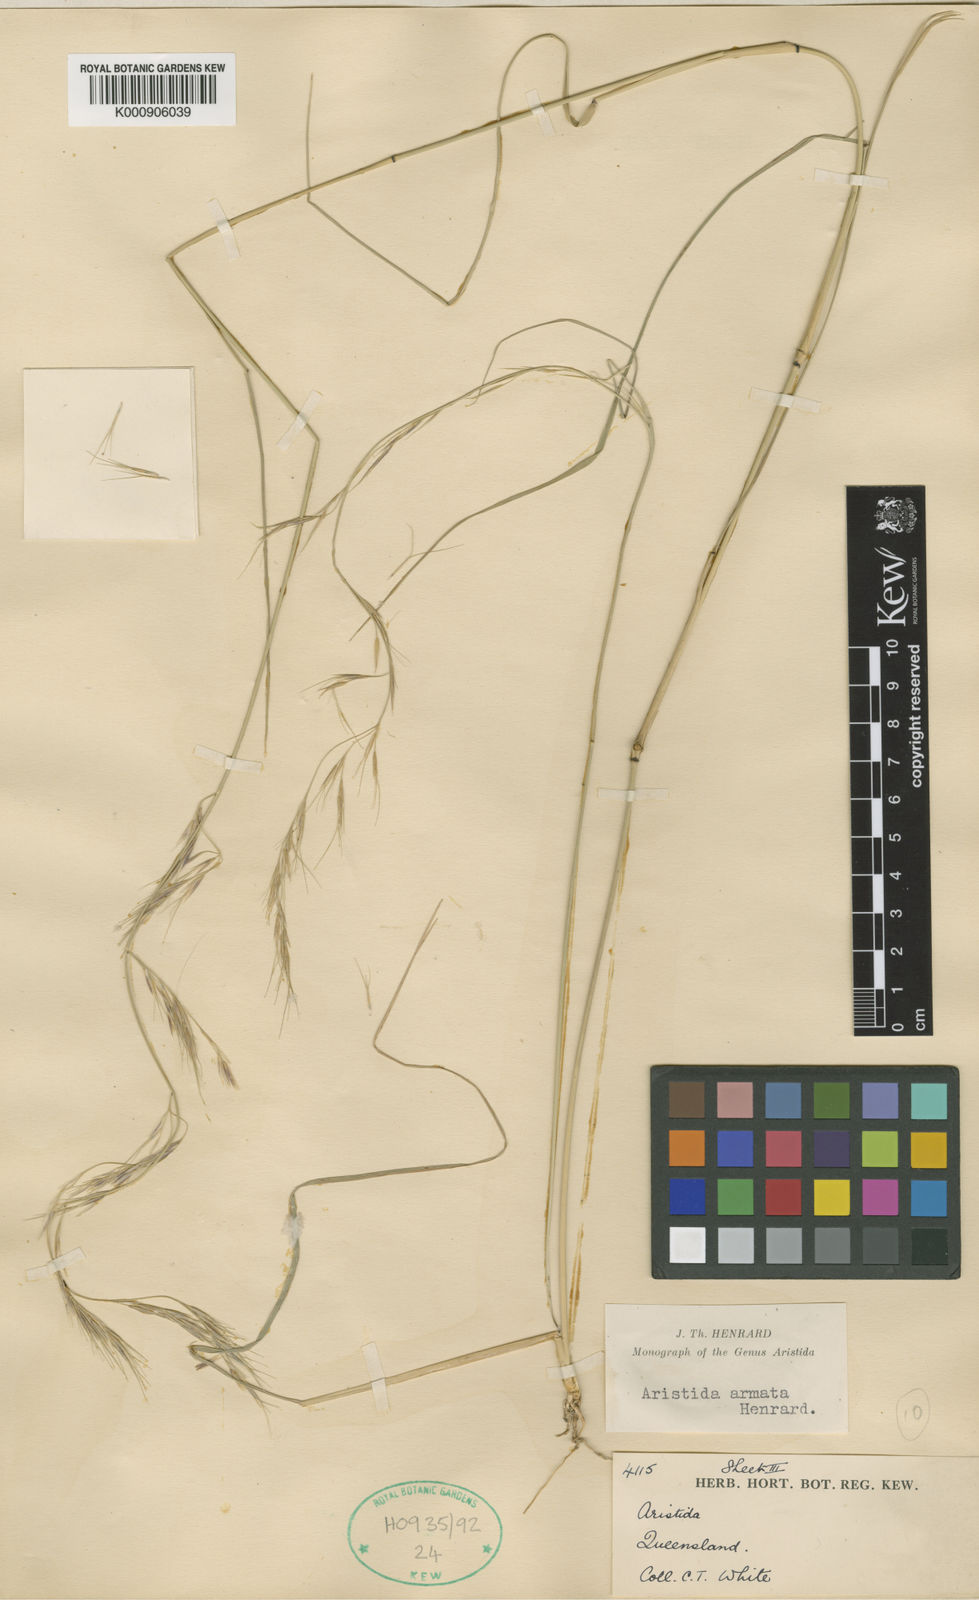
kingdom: Plantae
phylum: Tracheophyta
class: Liliopsida
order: Poales
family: Poaceae
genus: Aristida
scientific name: Aristida calycina
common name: Dark wire grass
